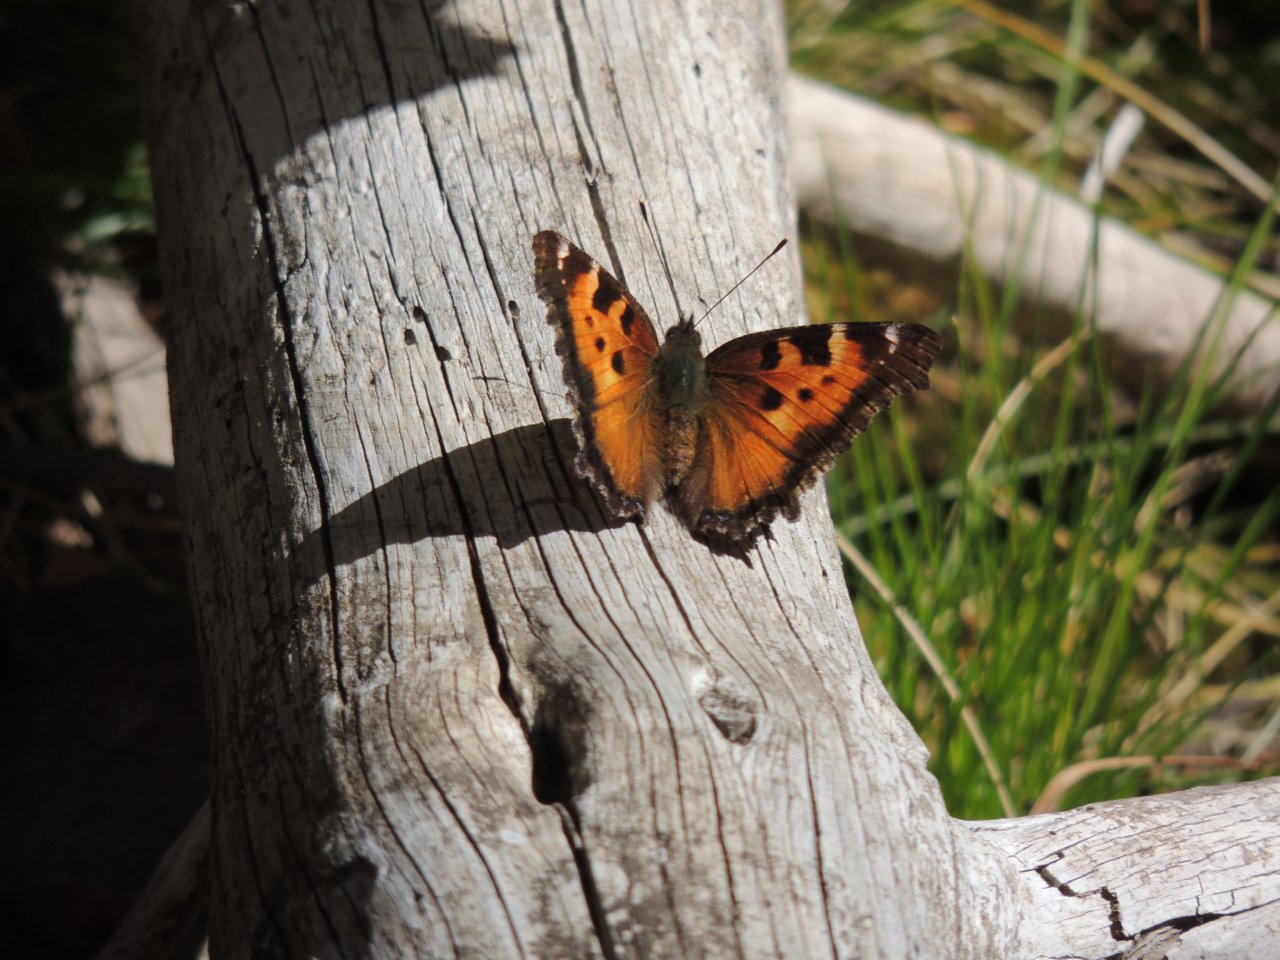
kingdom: Animalia
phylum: Arthropoda
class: Insecta
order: Lepidoptera
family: Nymphalidae
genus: Nymphalis
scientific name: Nymphalis californica
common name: California Tortoiseshell
